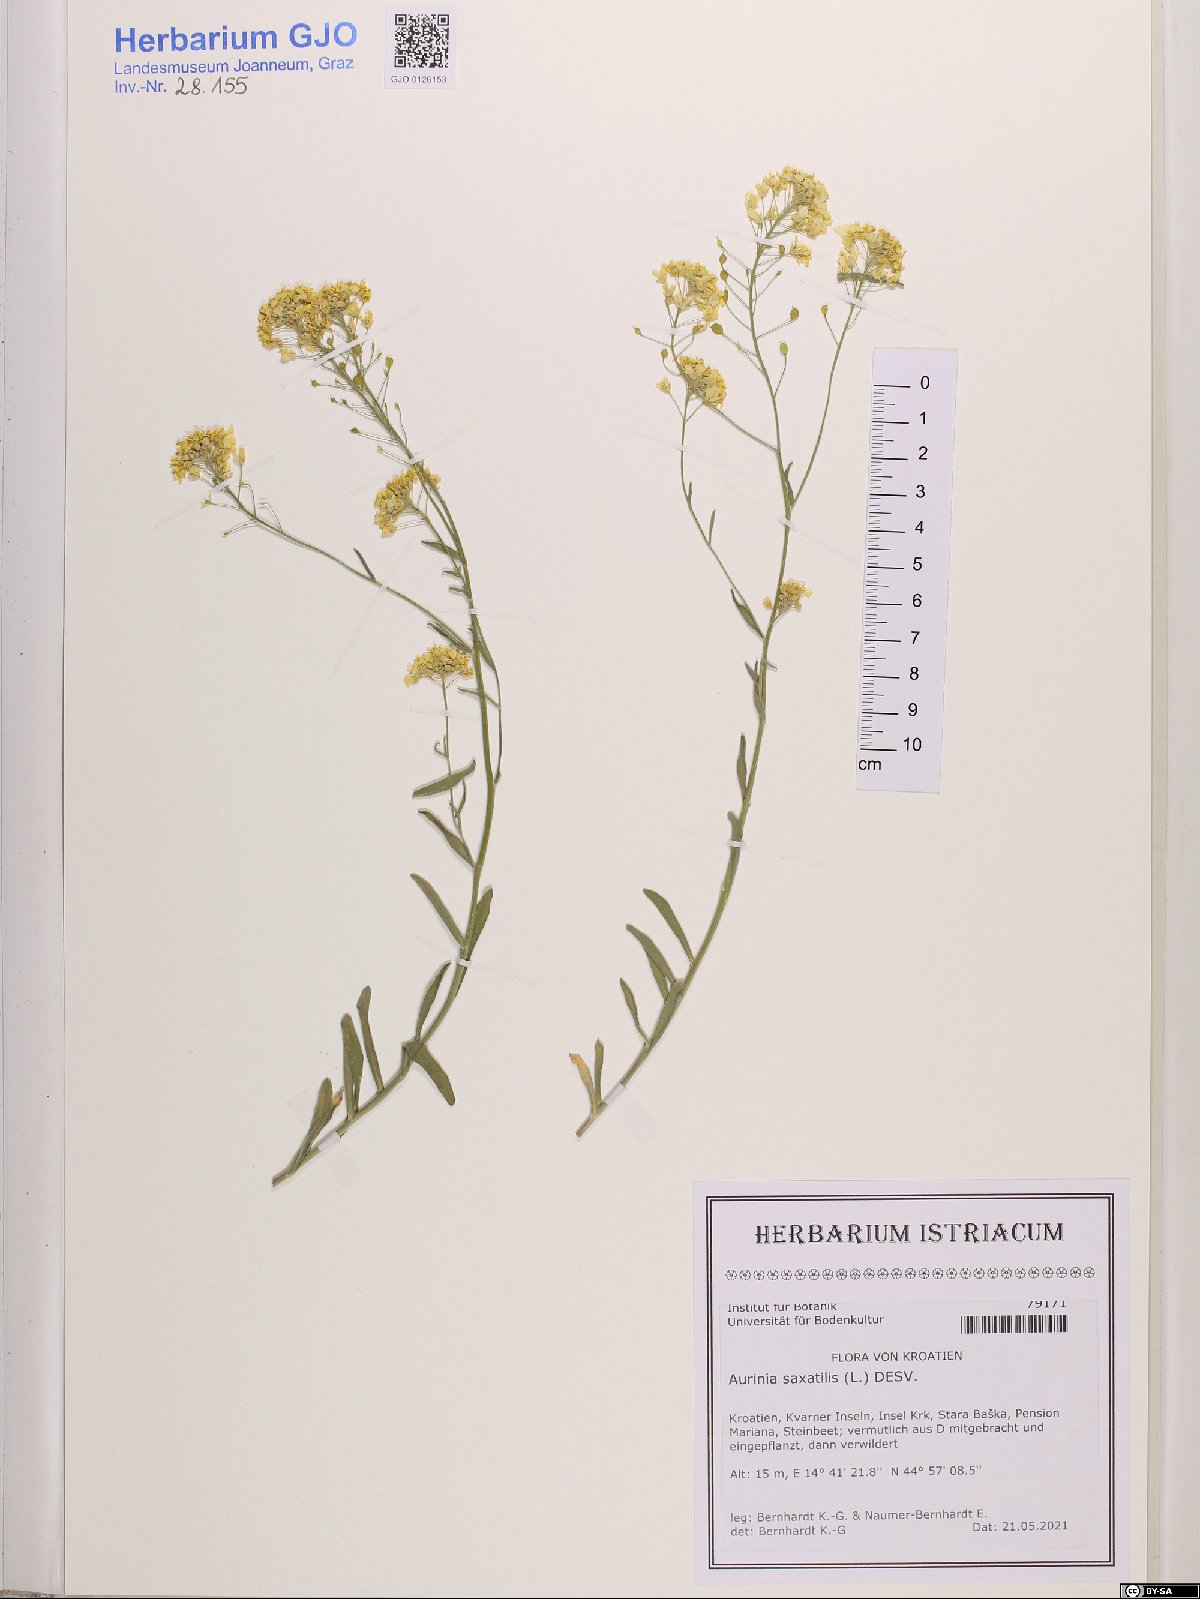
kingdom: Plantae
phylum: Tracheophyta
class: Magnoliopsida
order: Brassicales
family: Brassicaceae
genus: Aurinia
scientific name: Aurinia saxatilis
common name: Golden-tuft alyssum
